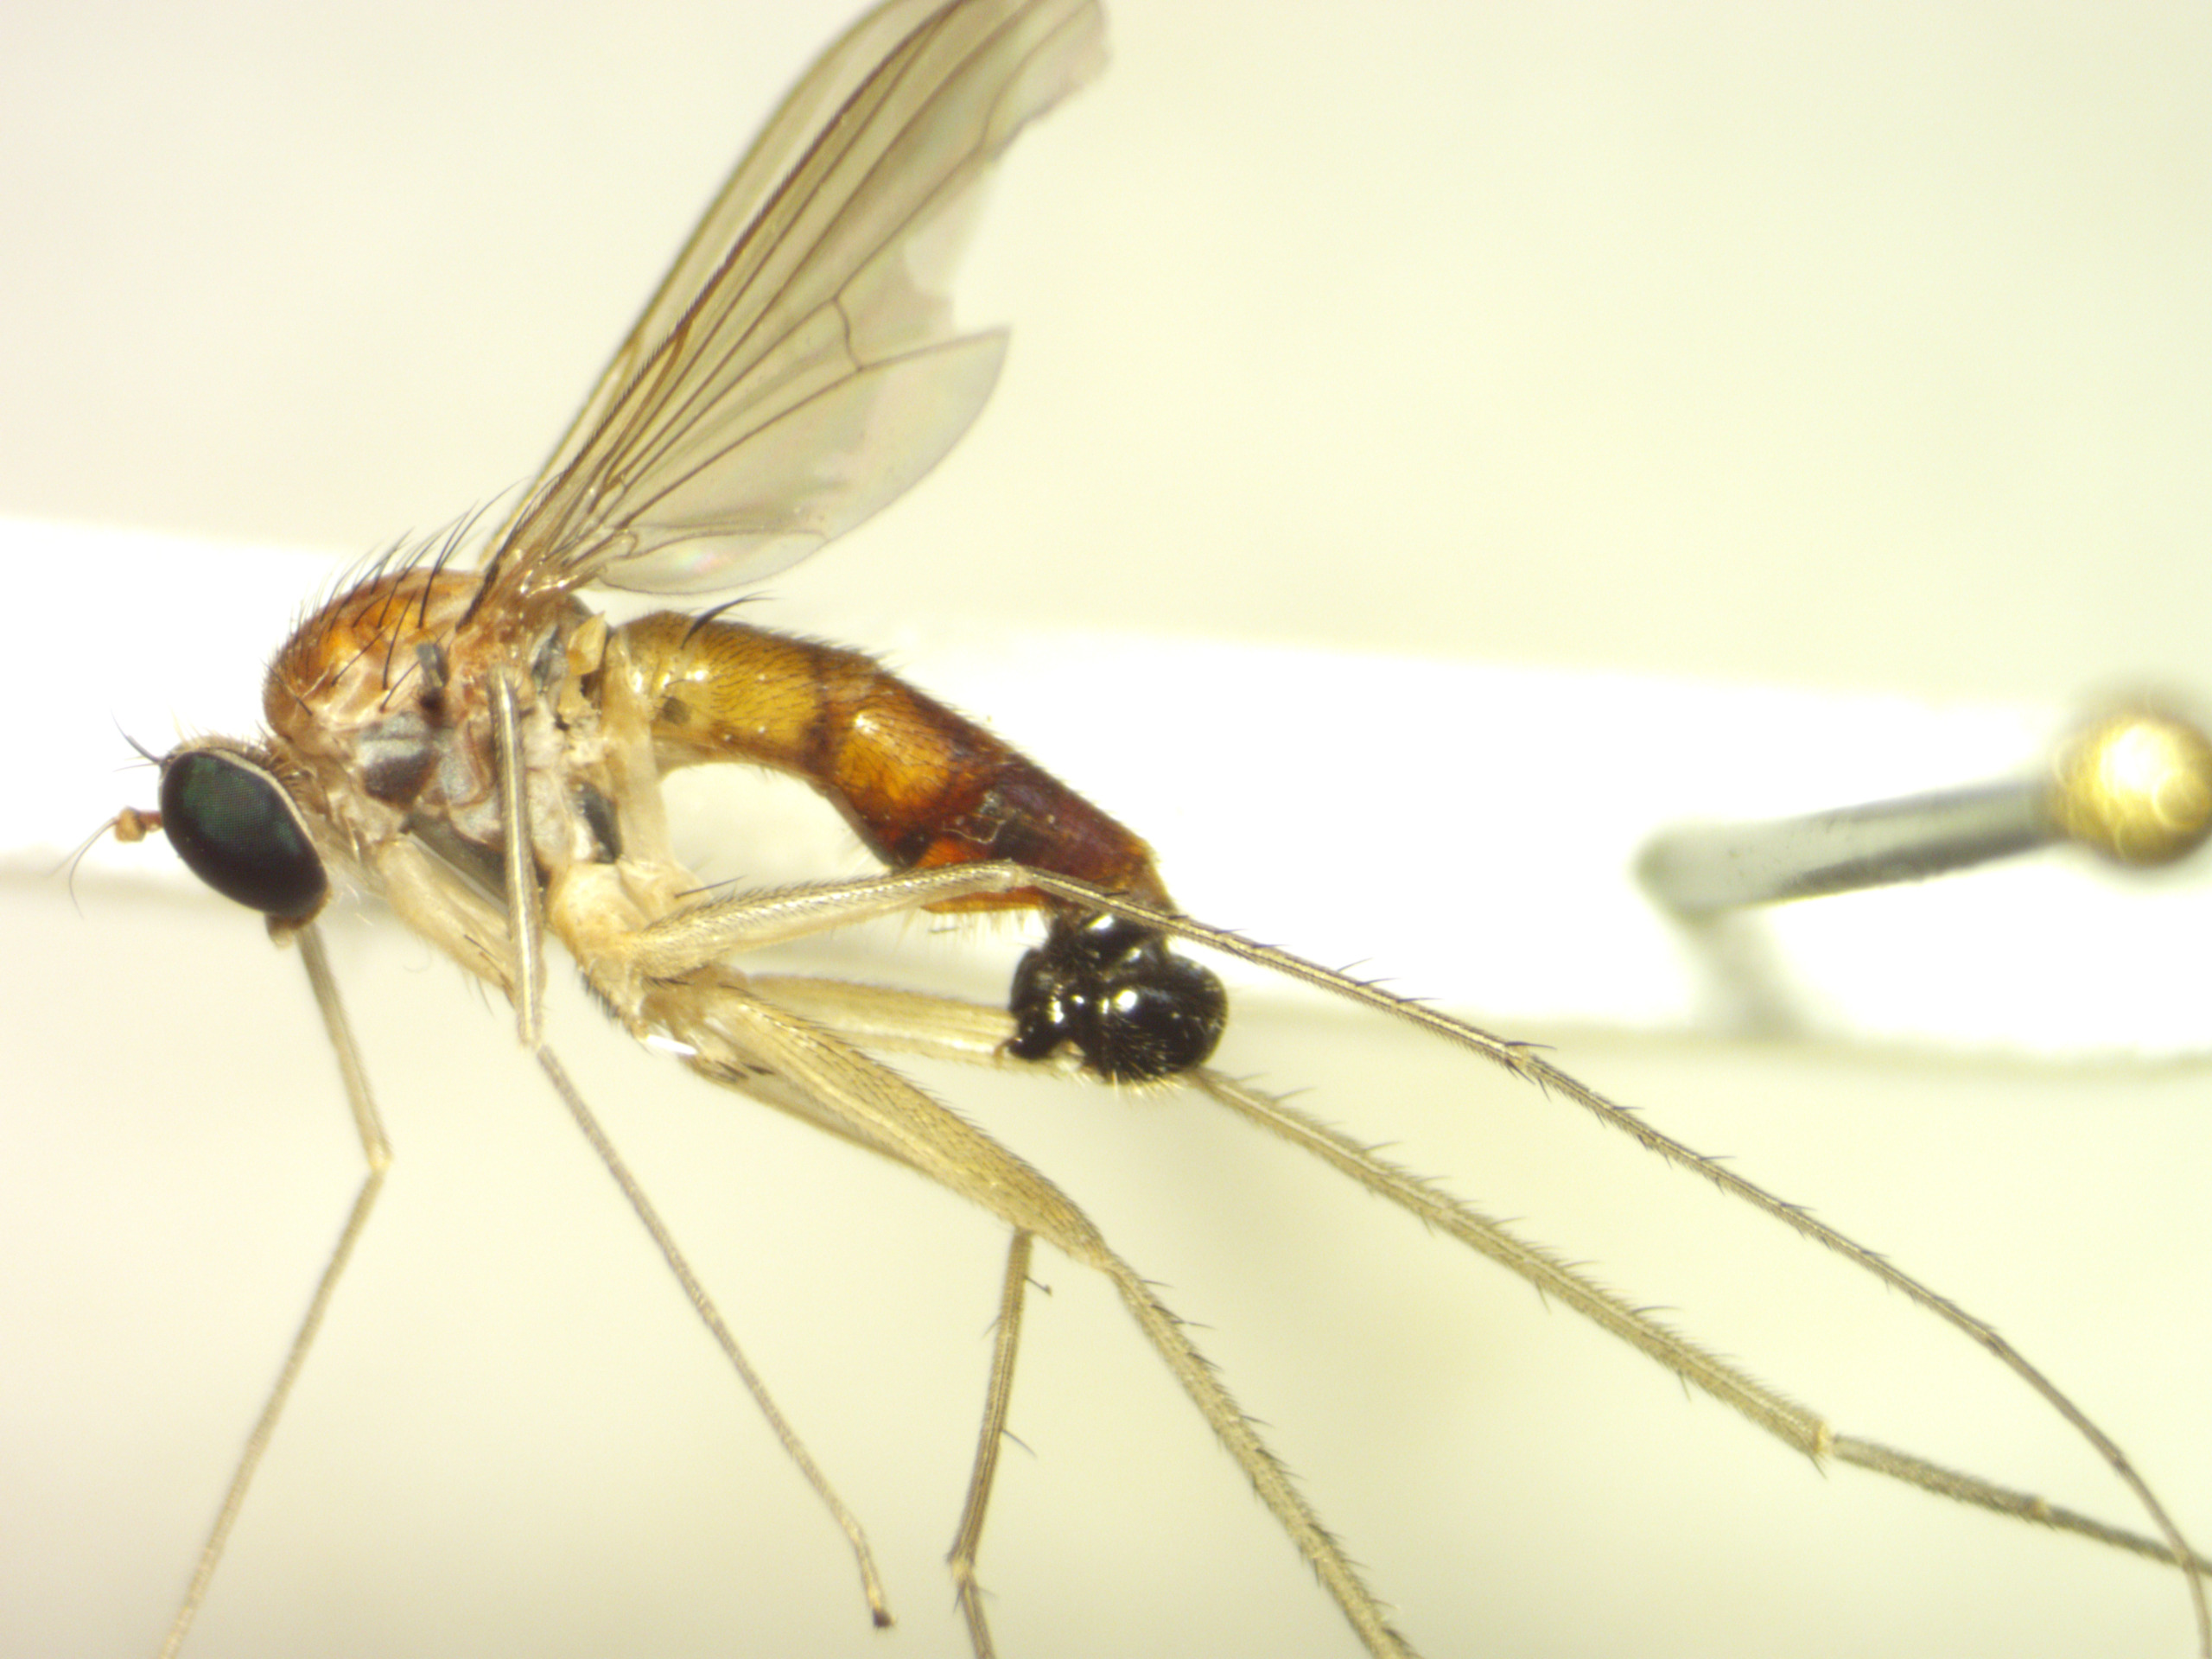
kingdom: Animalia
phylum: Arthropoda
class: Insecta
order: Diptera
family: Dolichopodidae
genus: Neurigona
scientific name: Neurigona pallida
